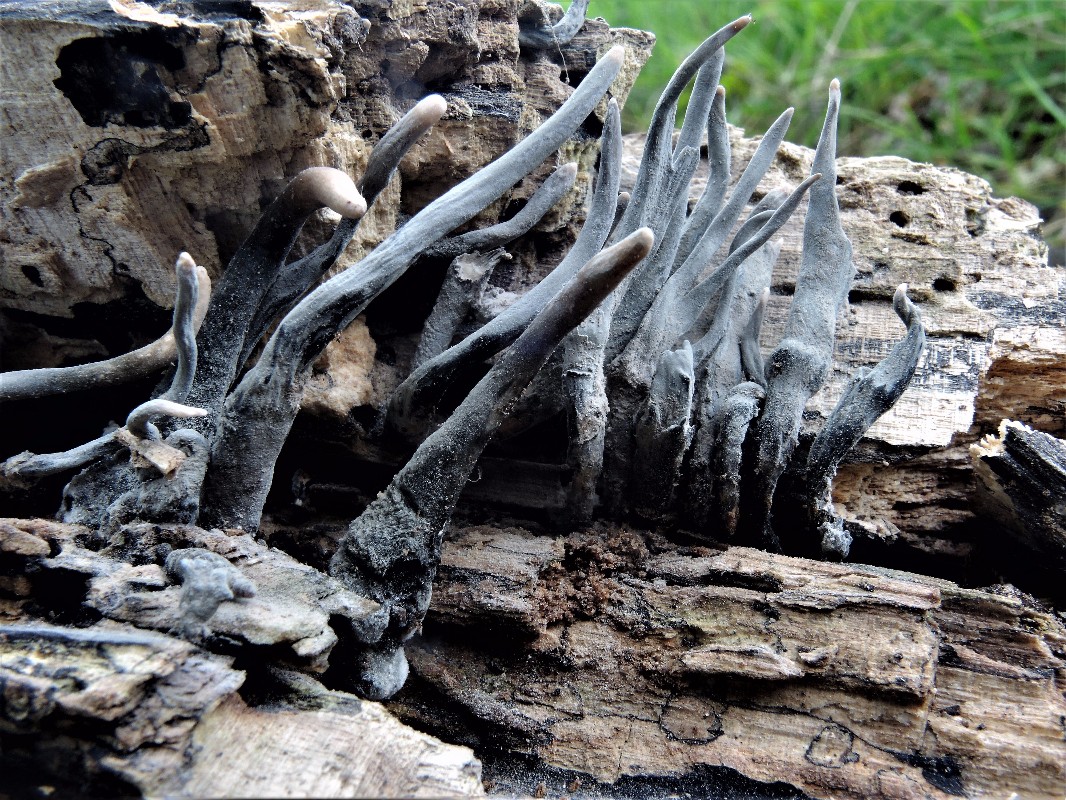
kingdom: Fungi
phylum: Ascomycota
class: Sordariomycetes
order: Xylariales
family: Xylariaceae
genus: Xylaria
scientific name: Xylaria hypoxylon
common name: grenet stødsvamp
